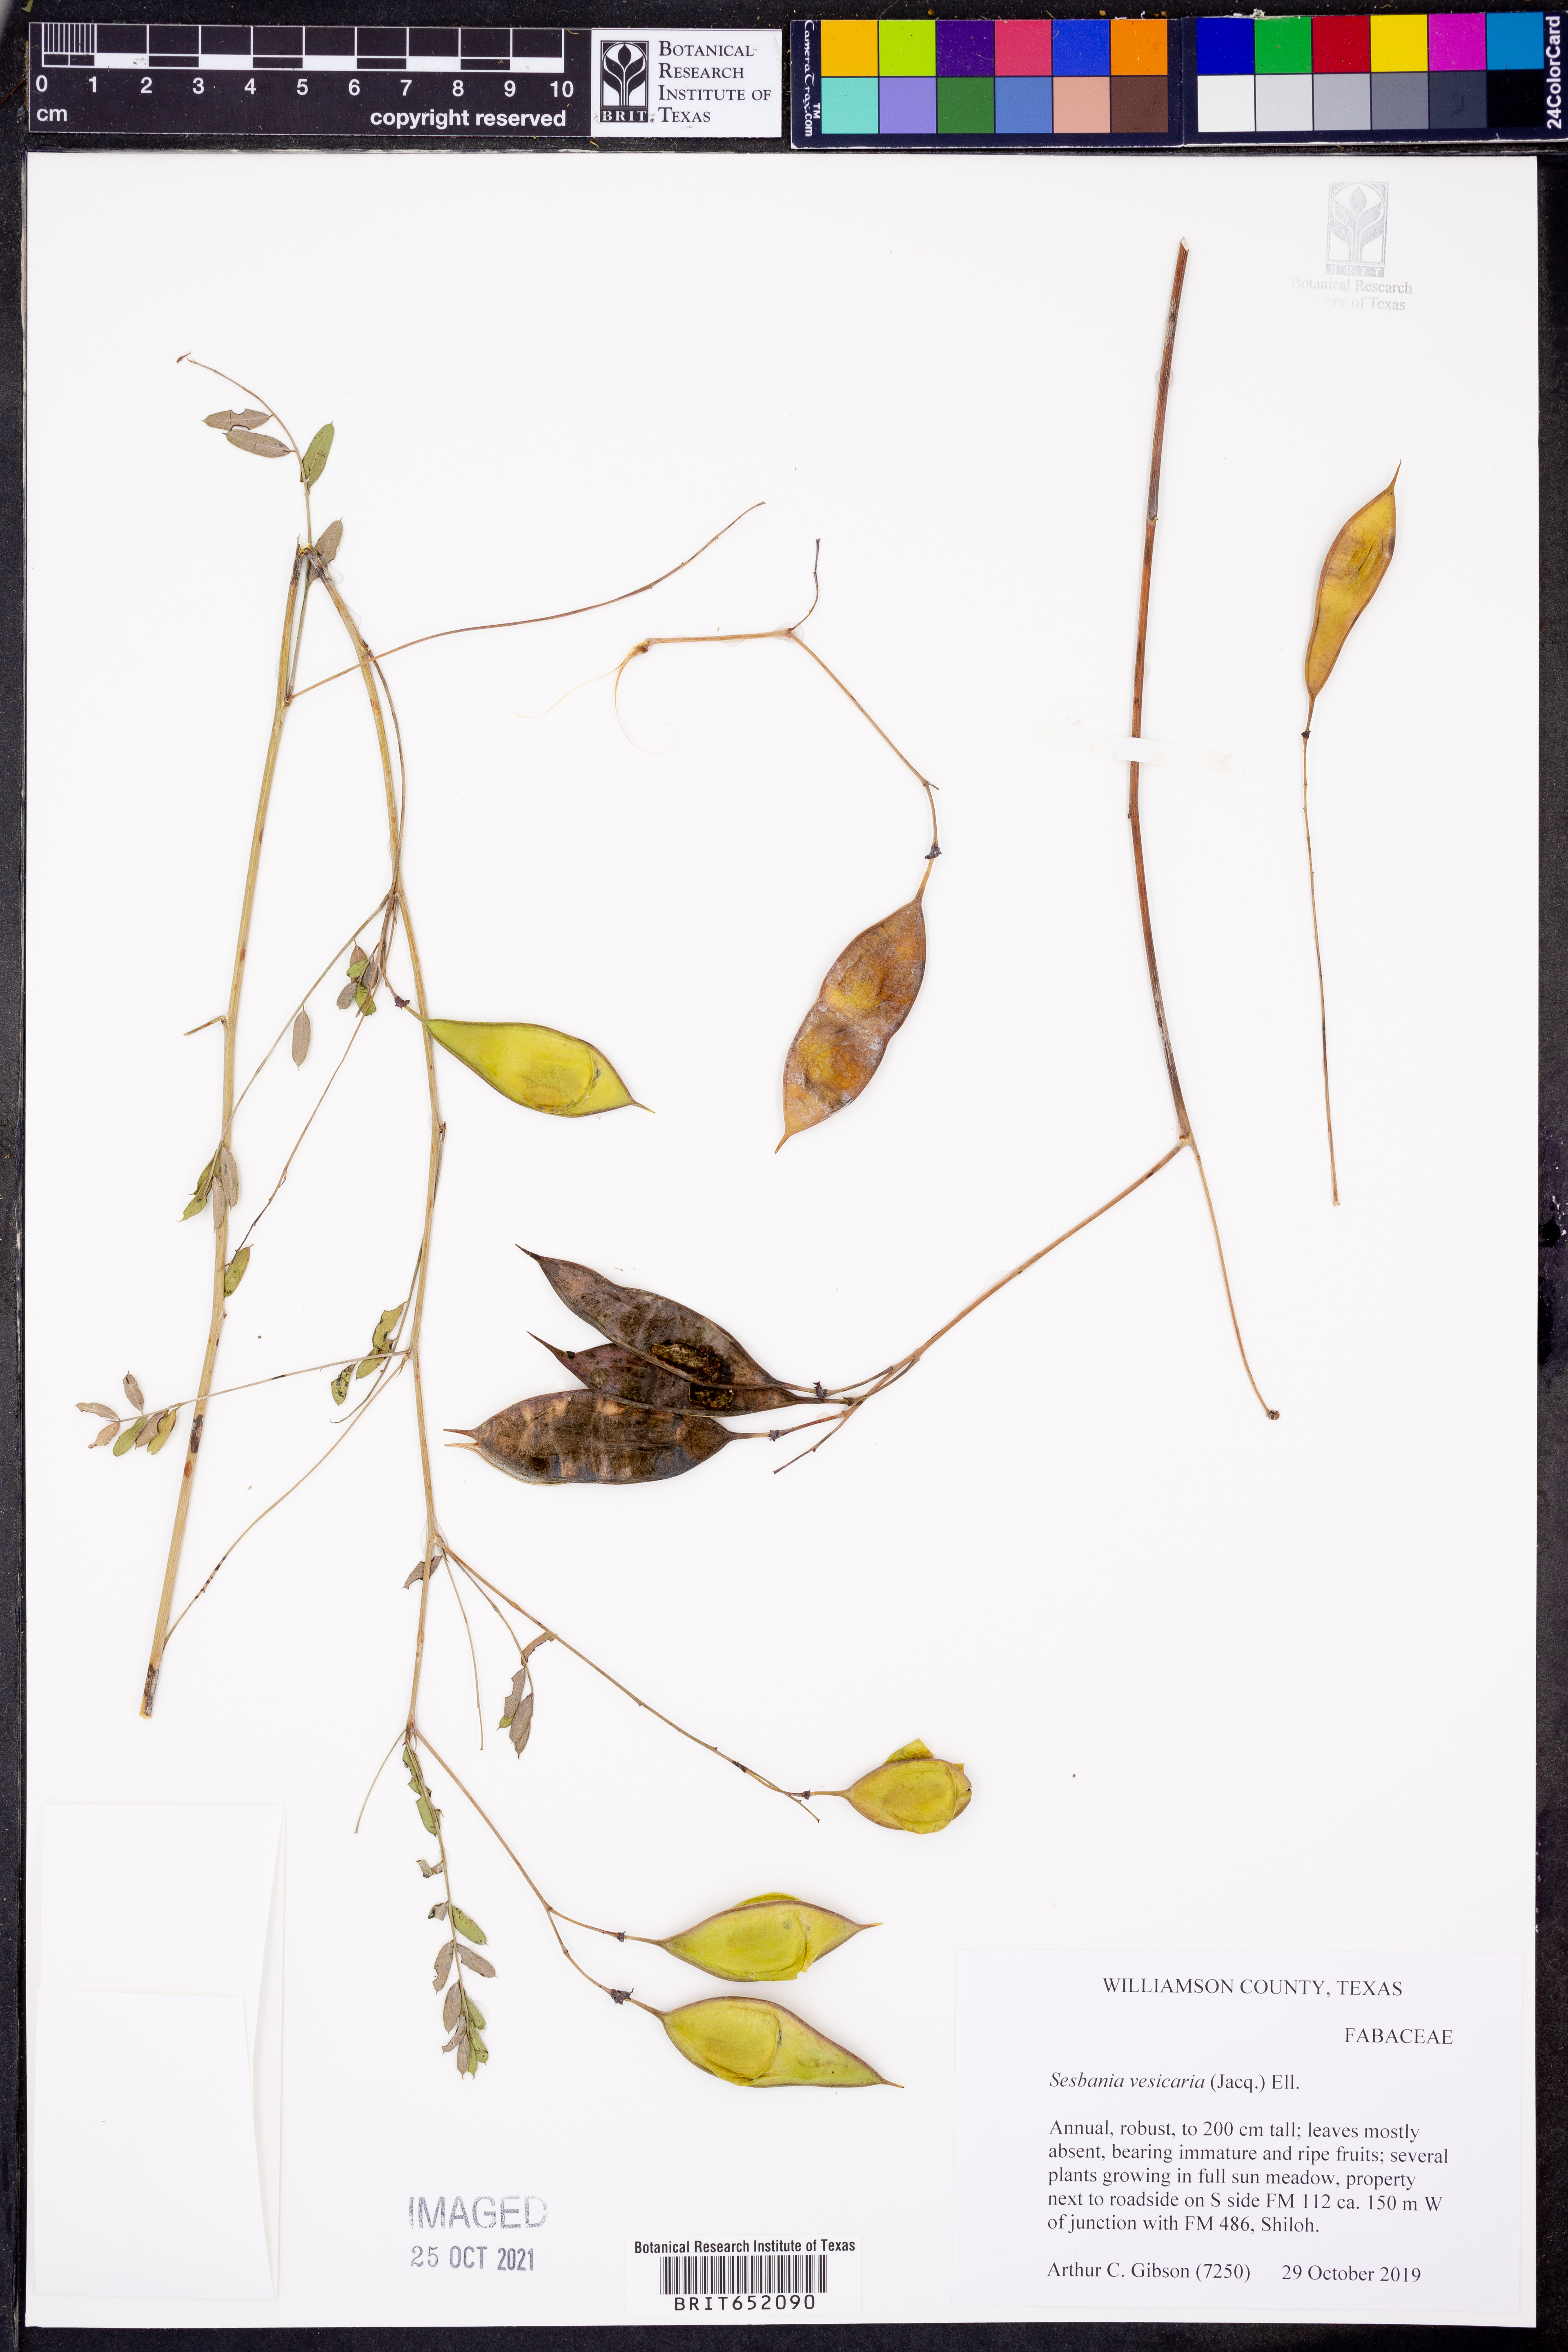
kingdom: Plantae
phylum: Tracheophyta
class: Magnoliopsida
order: Fabales
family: Fabaceae
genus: Sesbania
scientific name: Sesbania vesicaria
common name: Bagpod
